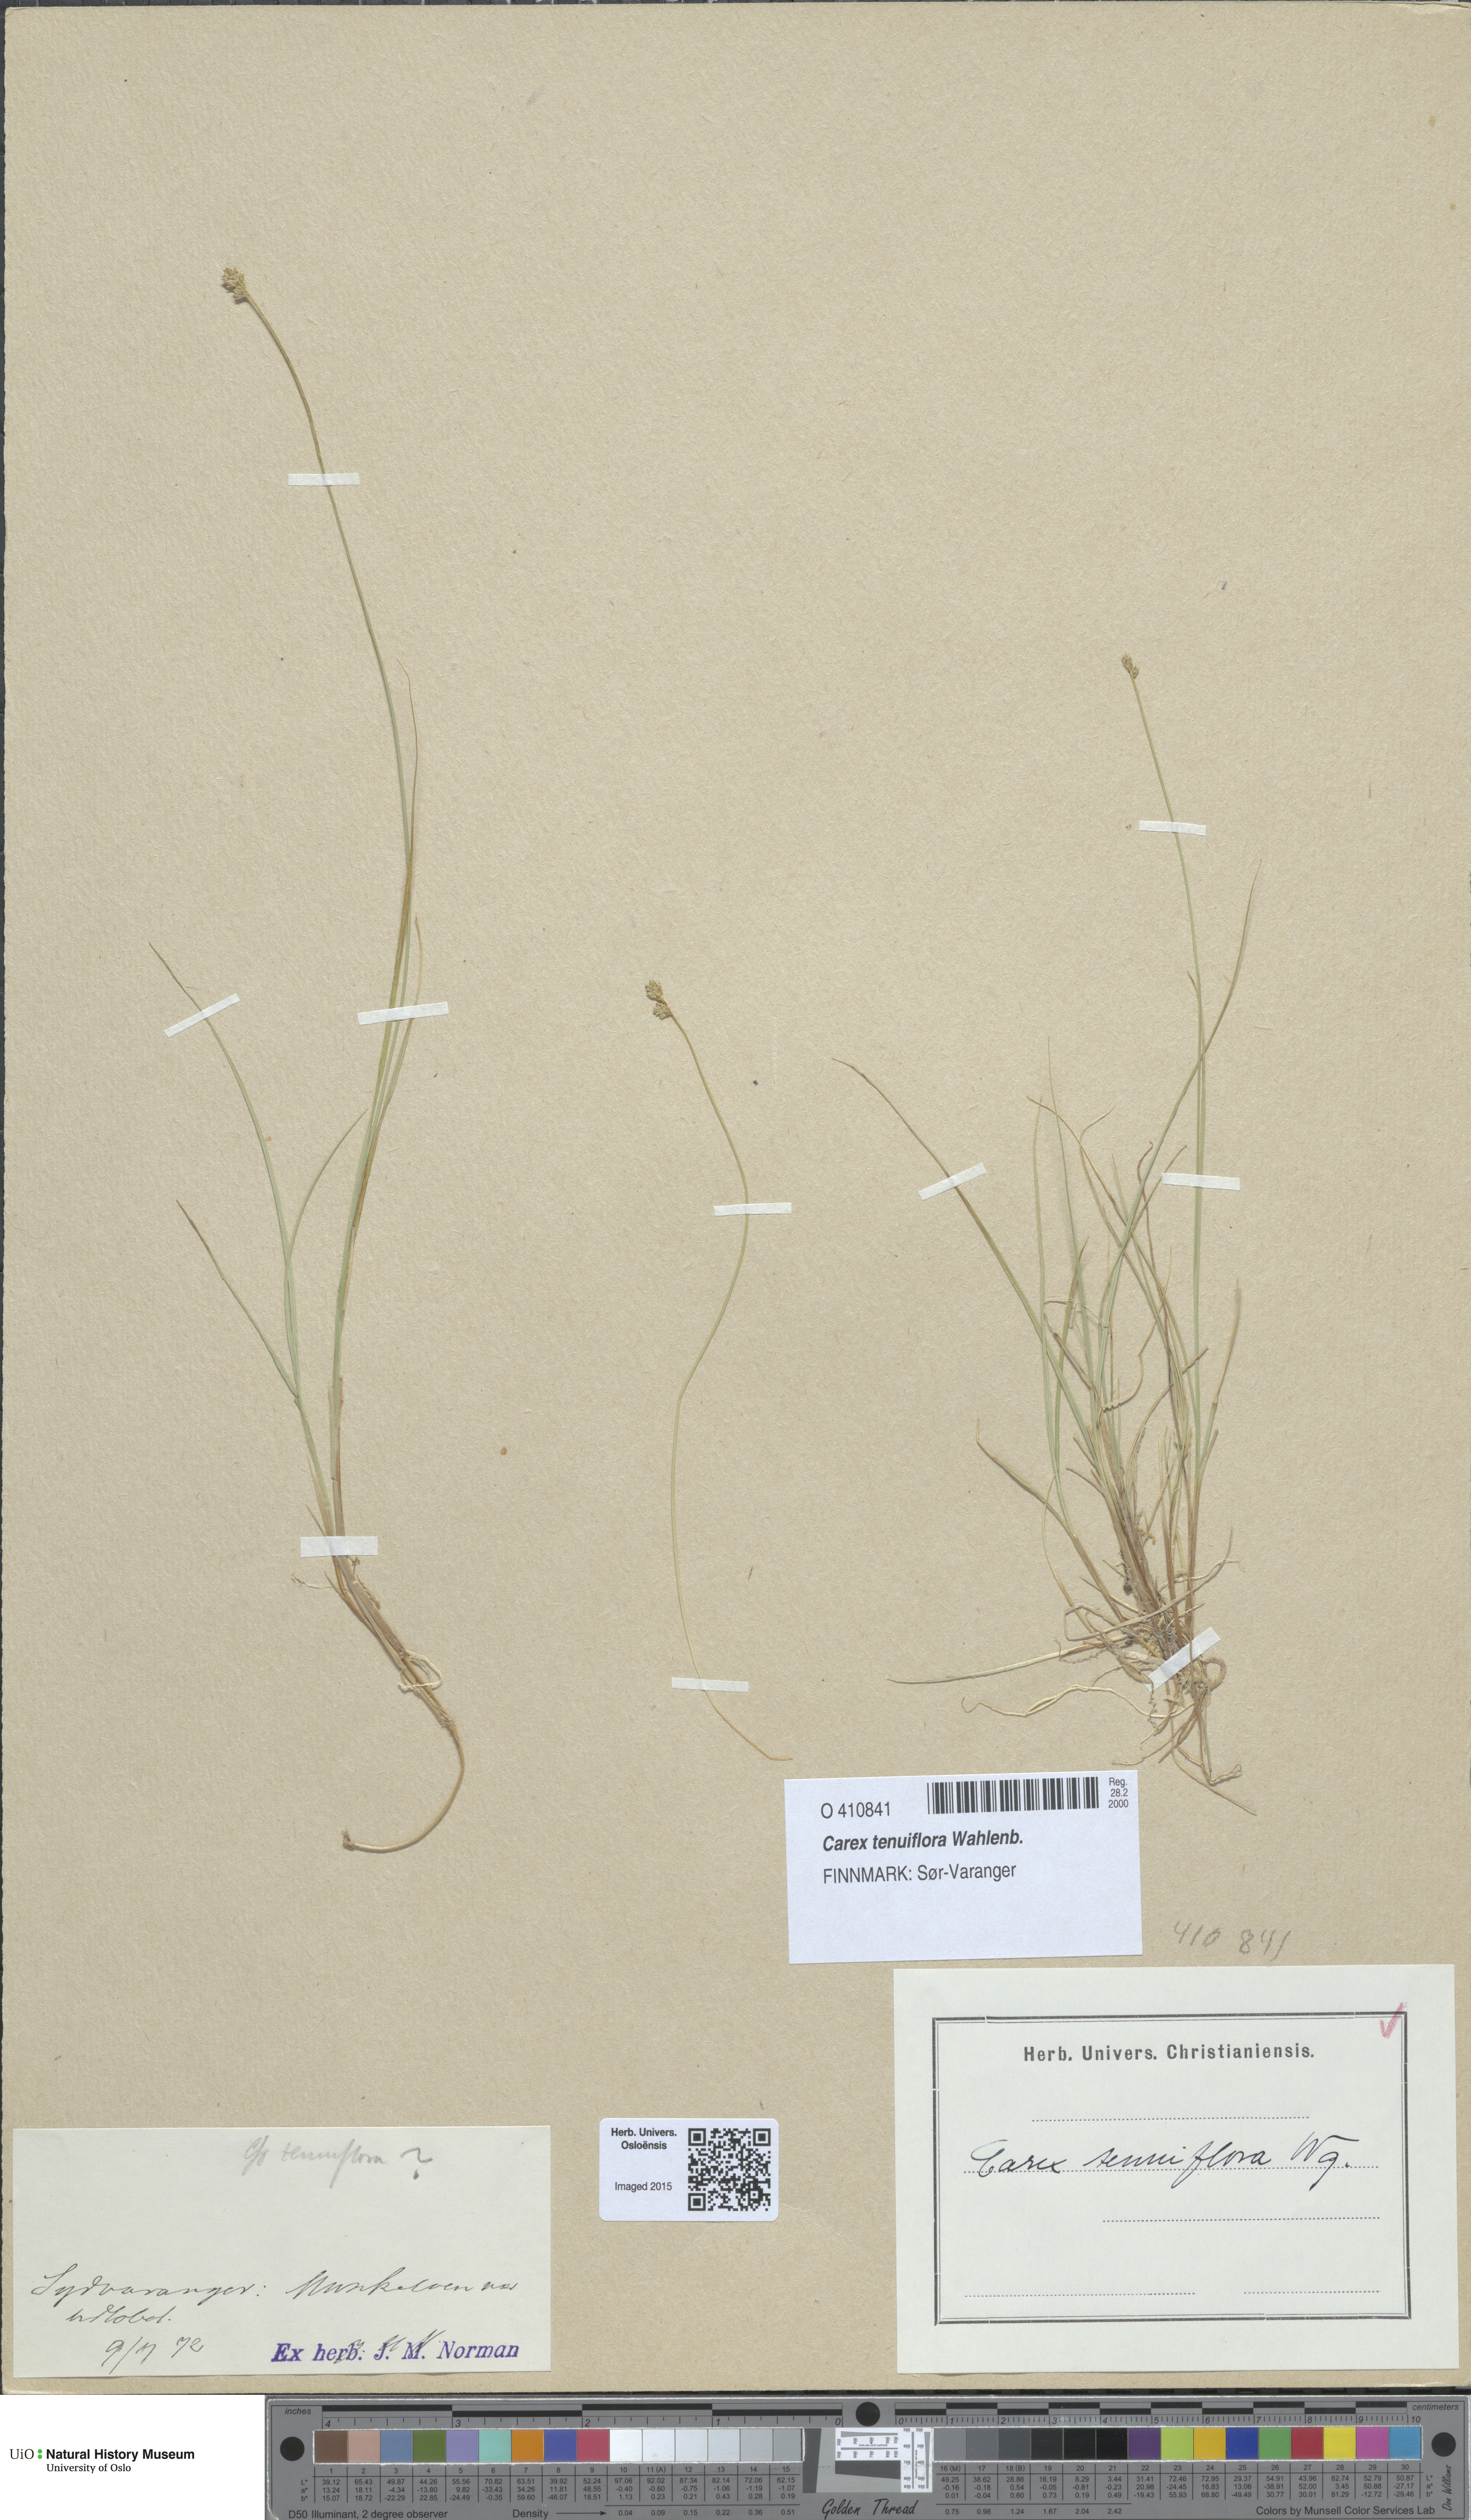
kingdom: Plantae
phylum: Tracheophyta
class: Liliopsida
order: Poales
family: Cyperaceae
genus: Carex
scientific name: Carex tenuiflora
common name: Sparse-flowered sedge
